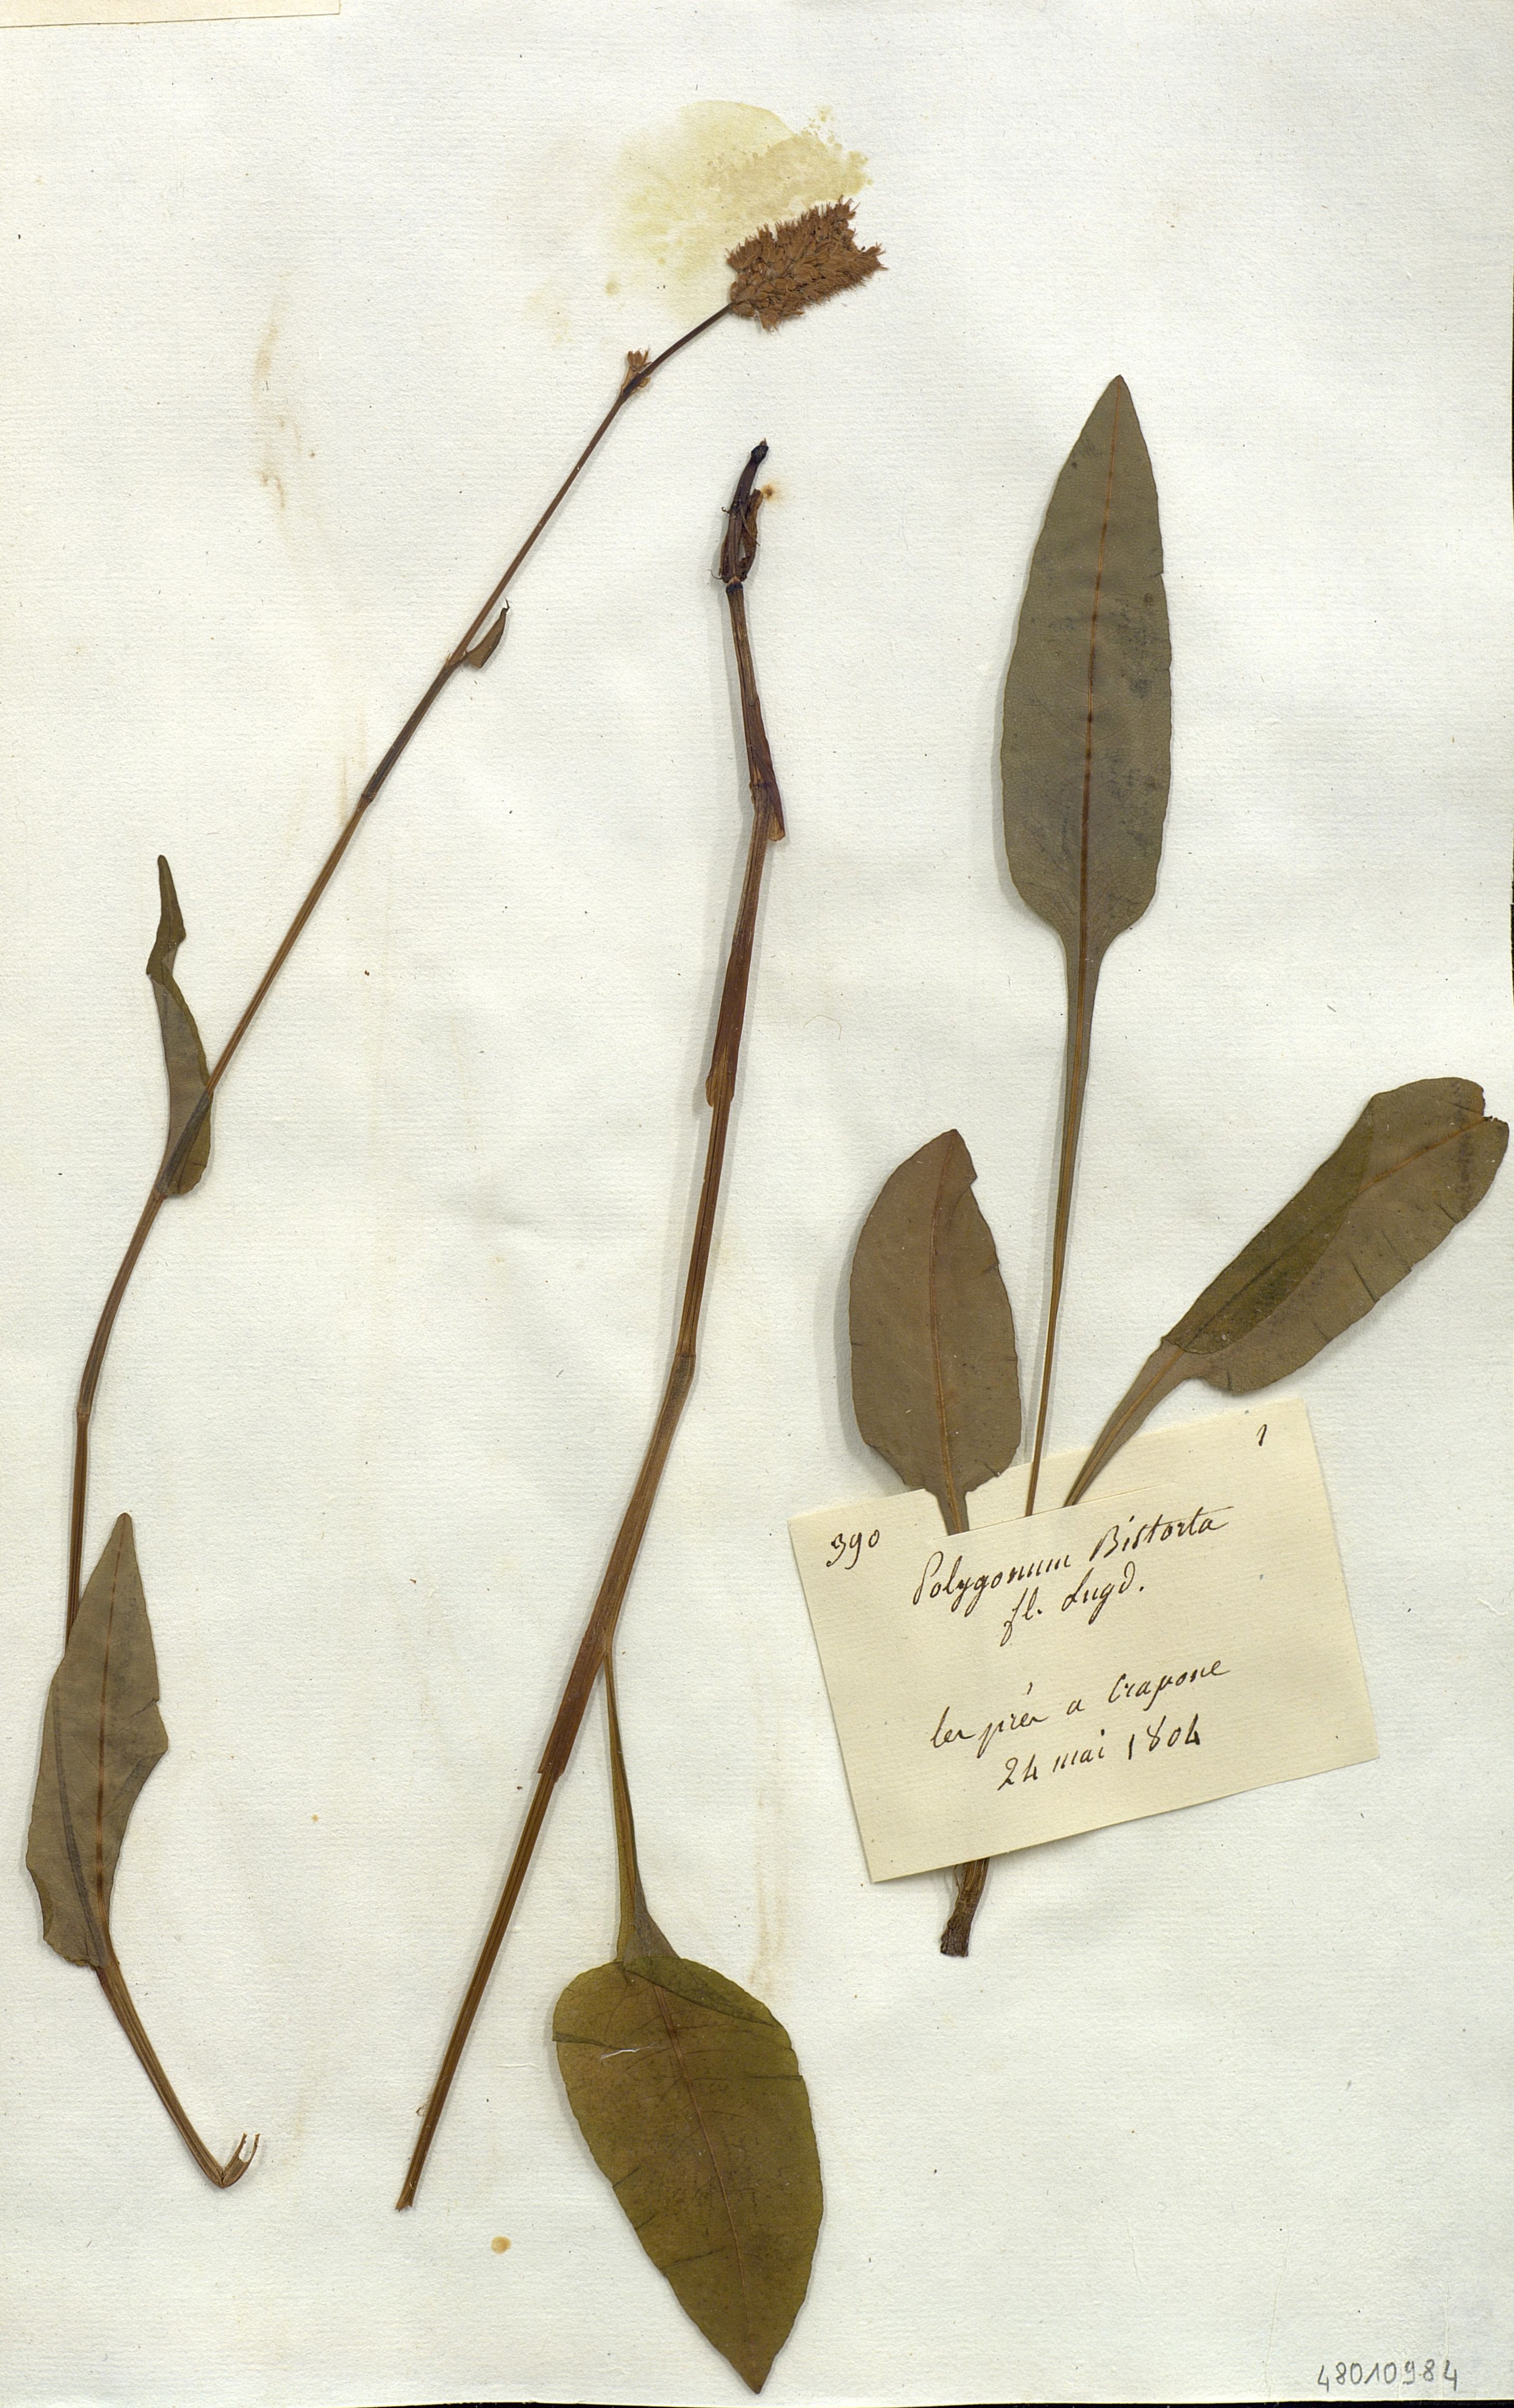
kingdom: Plantae
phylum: Tracheophyta
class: Magnoliopsida
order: Caryophyllales
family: Polygonaceae
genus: Polygonum
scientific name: Polygonum bistorta
